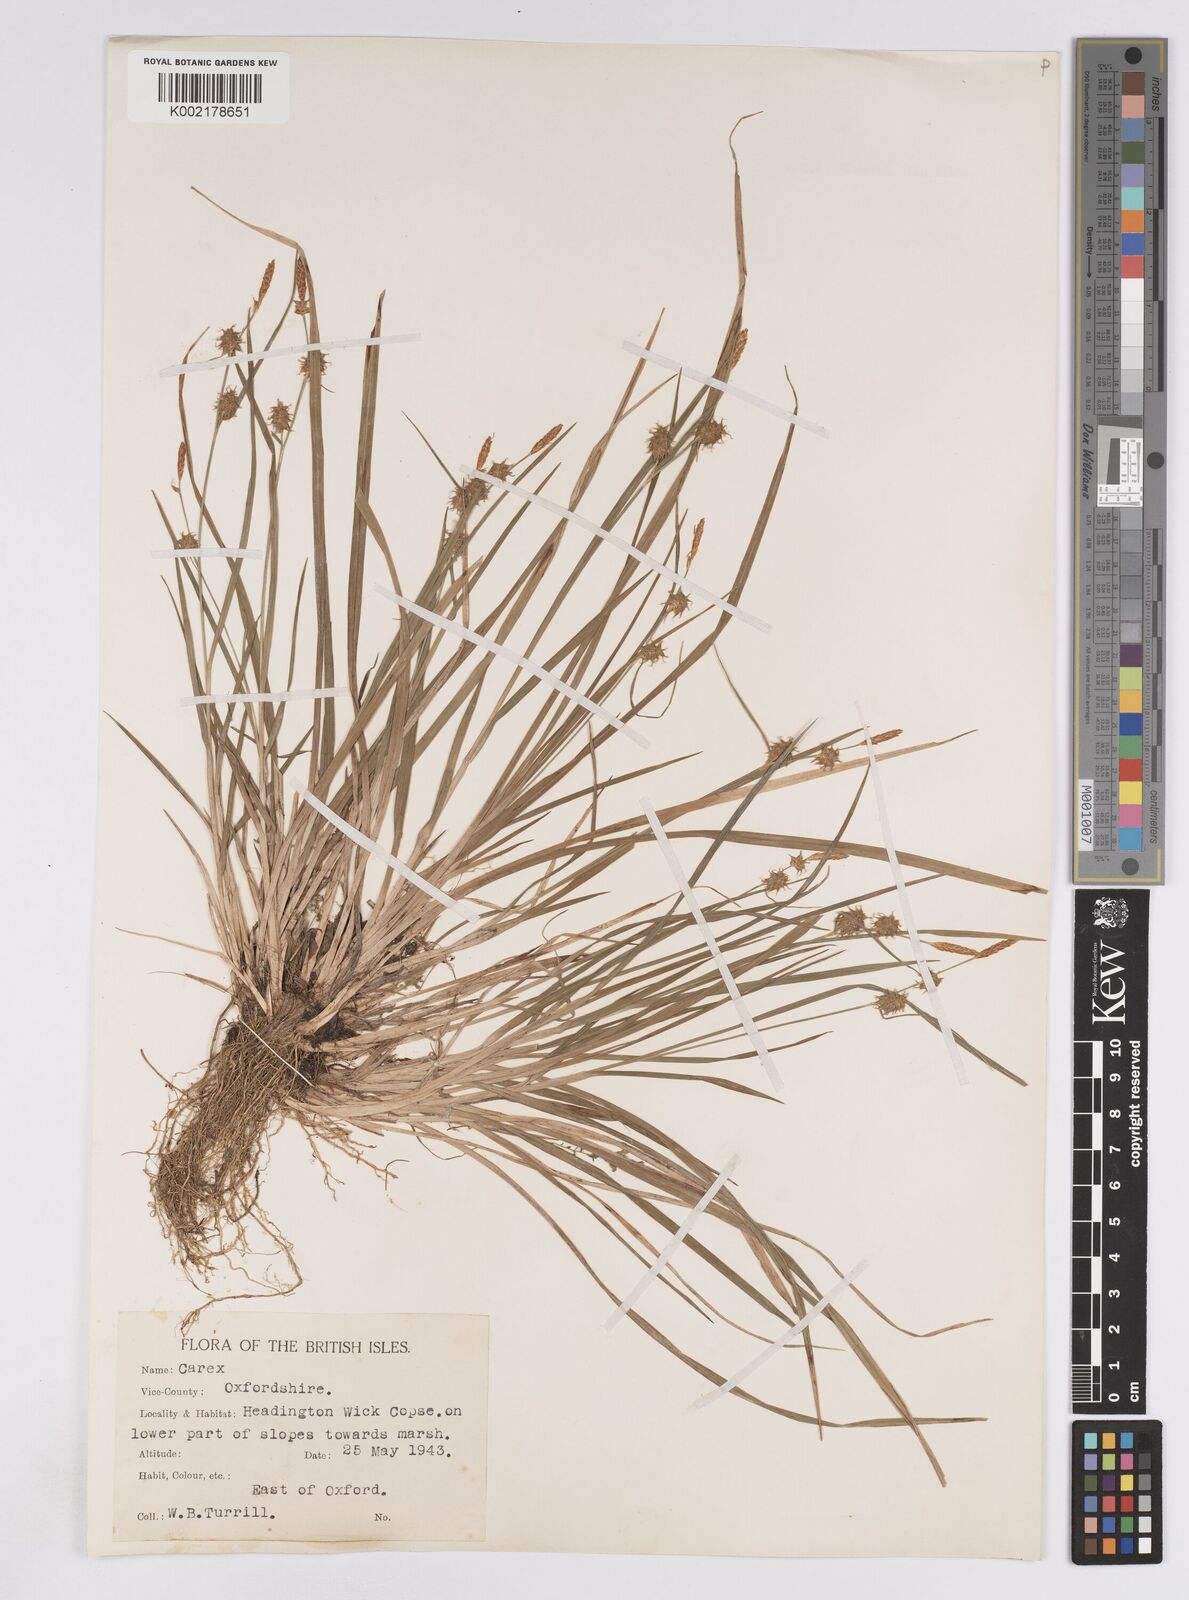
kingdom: Plantae
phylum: Tracheophyta
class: Liliopsida
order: Poales
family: Cyperaceae
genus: Carex
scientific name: Carex lepidocarpa
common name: Long-stalked yellow-sedge
